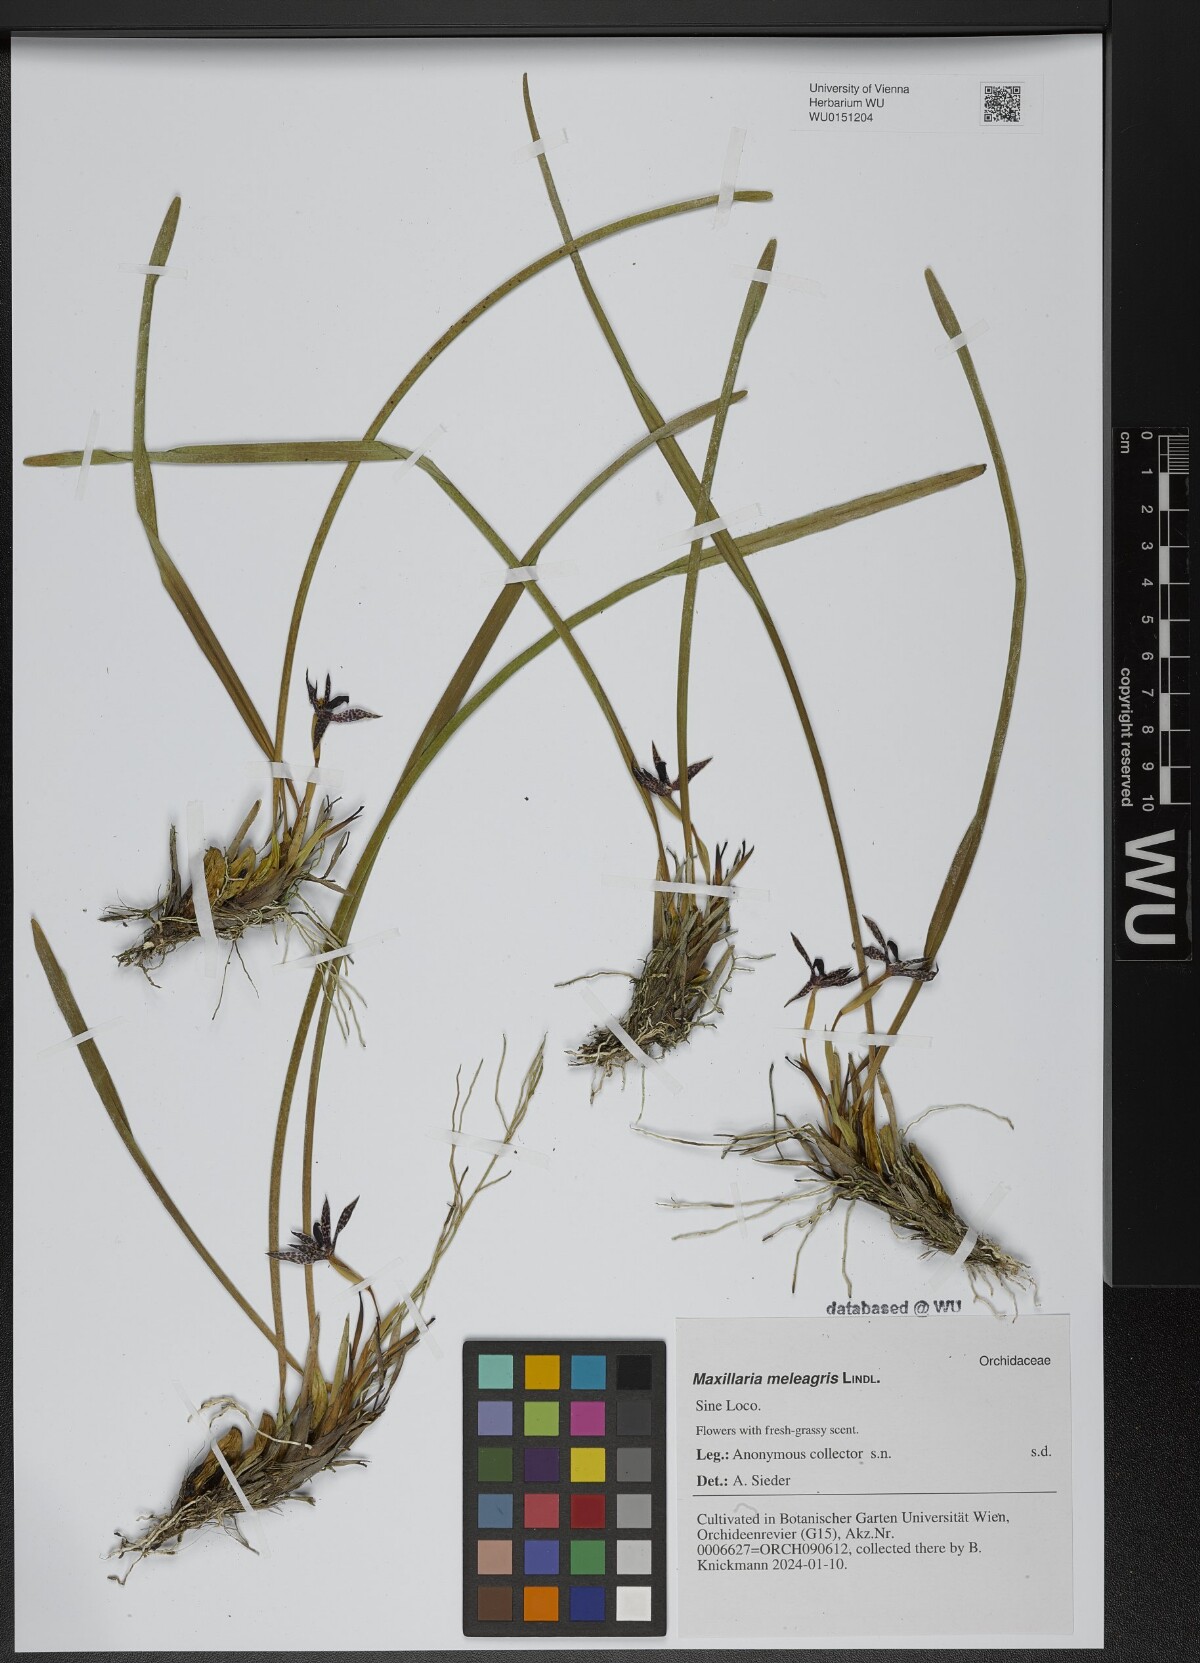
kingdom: Plantae
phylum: Tracheophyta
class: Liliopsida
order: Asparagales
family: Orchidaceae
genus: Maxillaria
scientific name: Maxillaria meleagris
